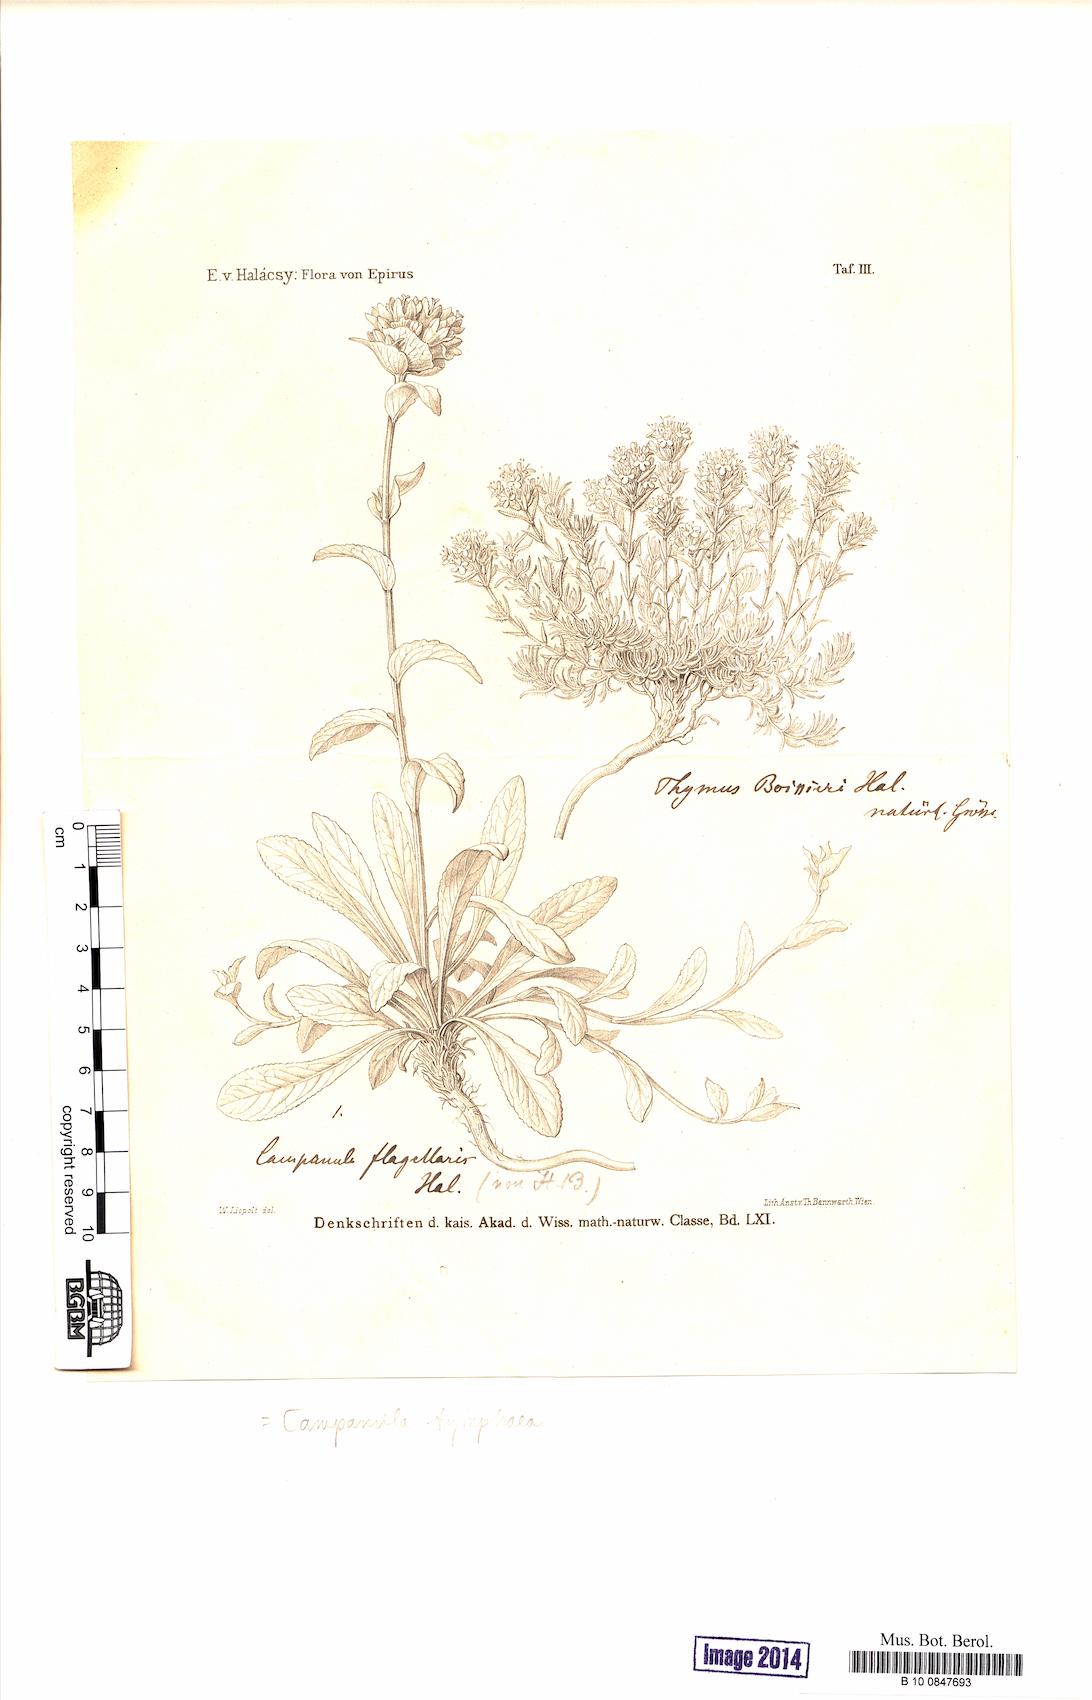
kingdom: Plantae
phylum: Tracheophyta
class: Magnoliopsida
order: Asterales
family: Campanulaceae
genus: Campanula
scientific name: Campanula tymphaea
